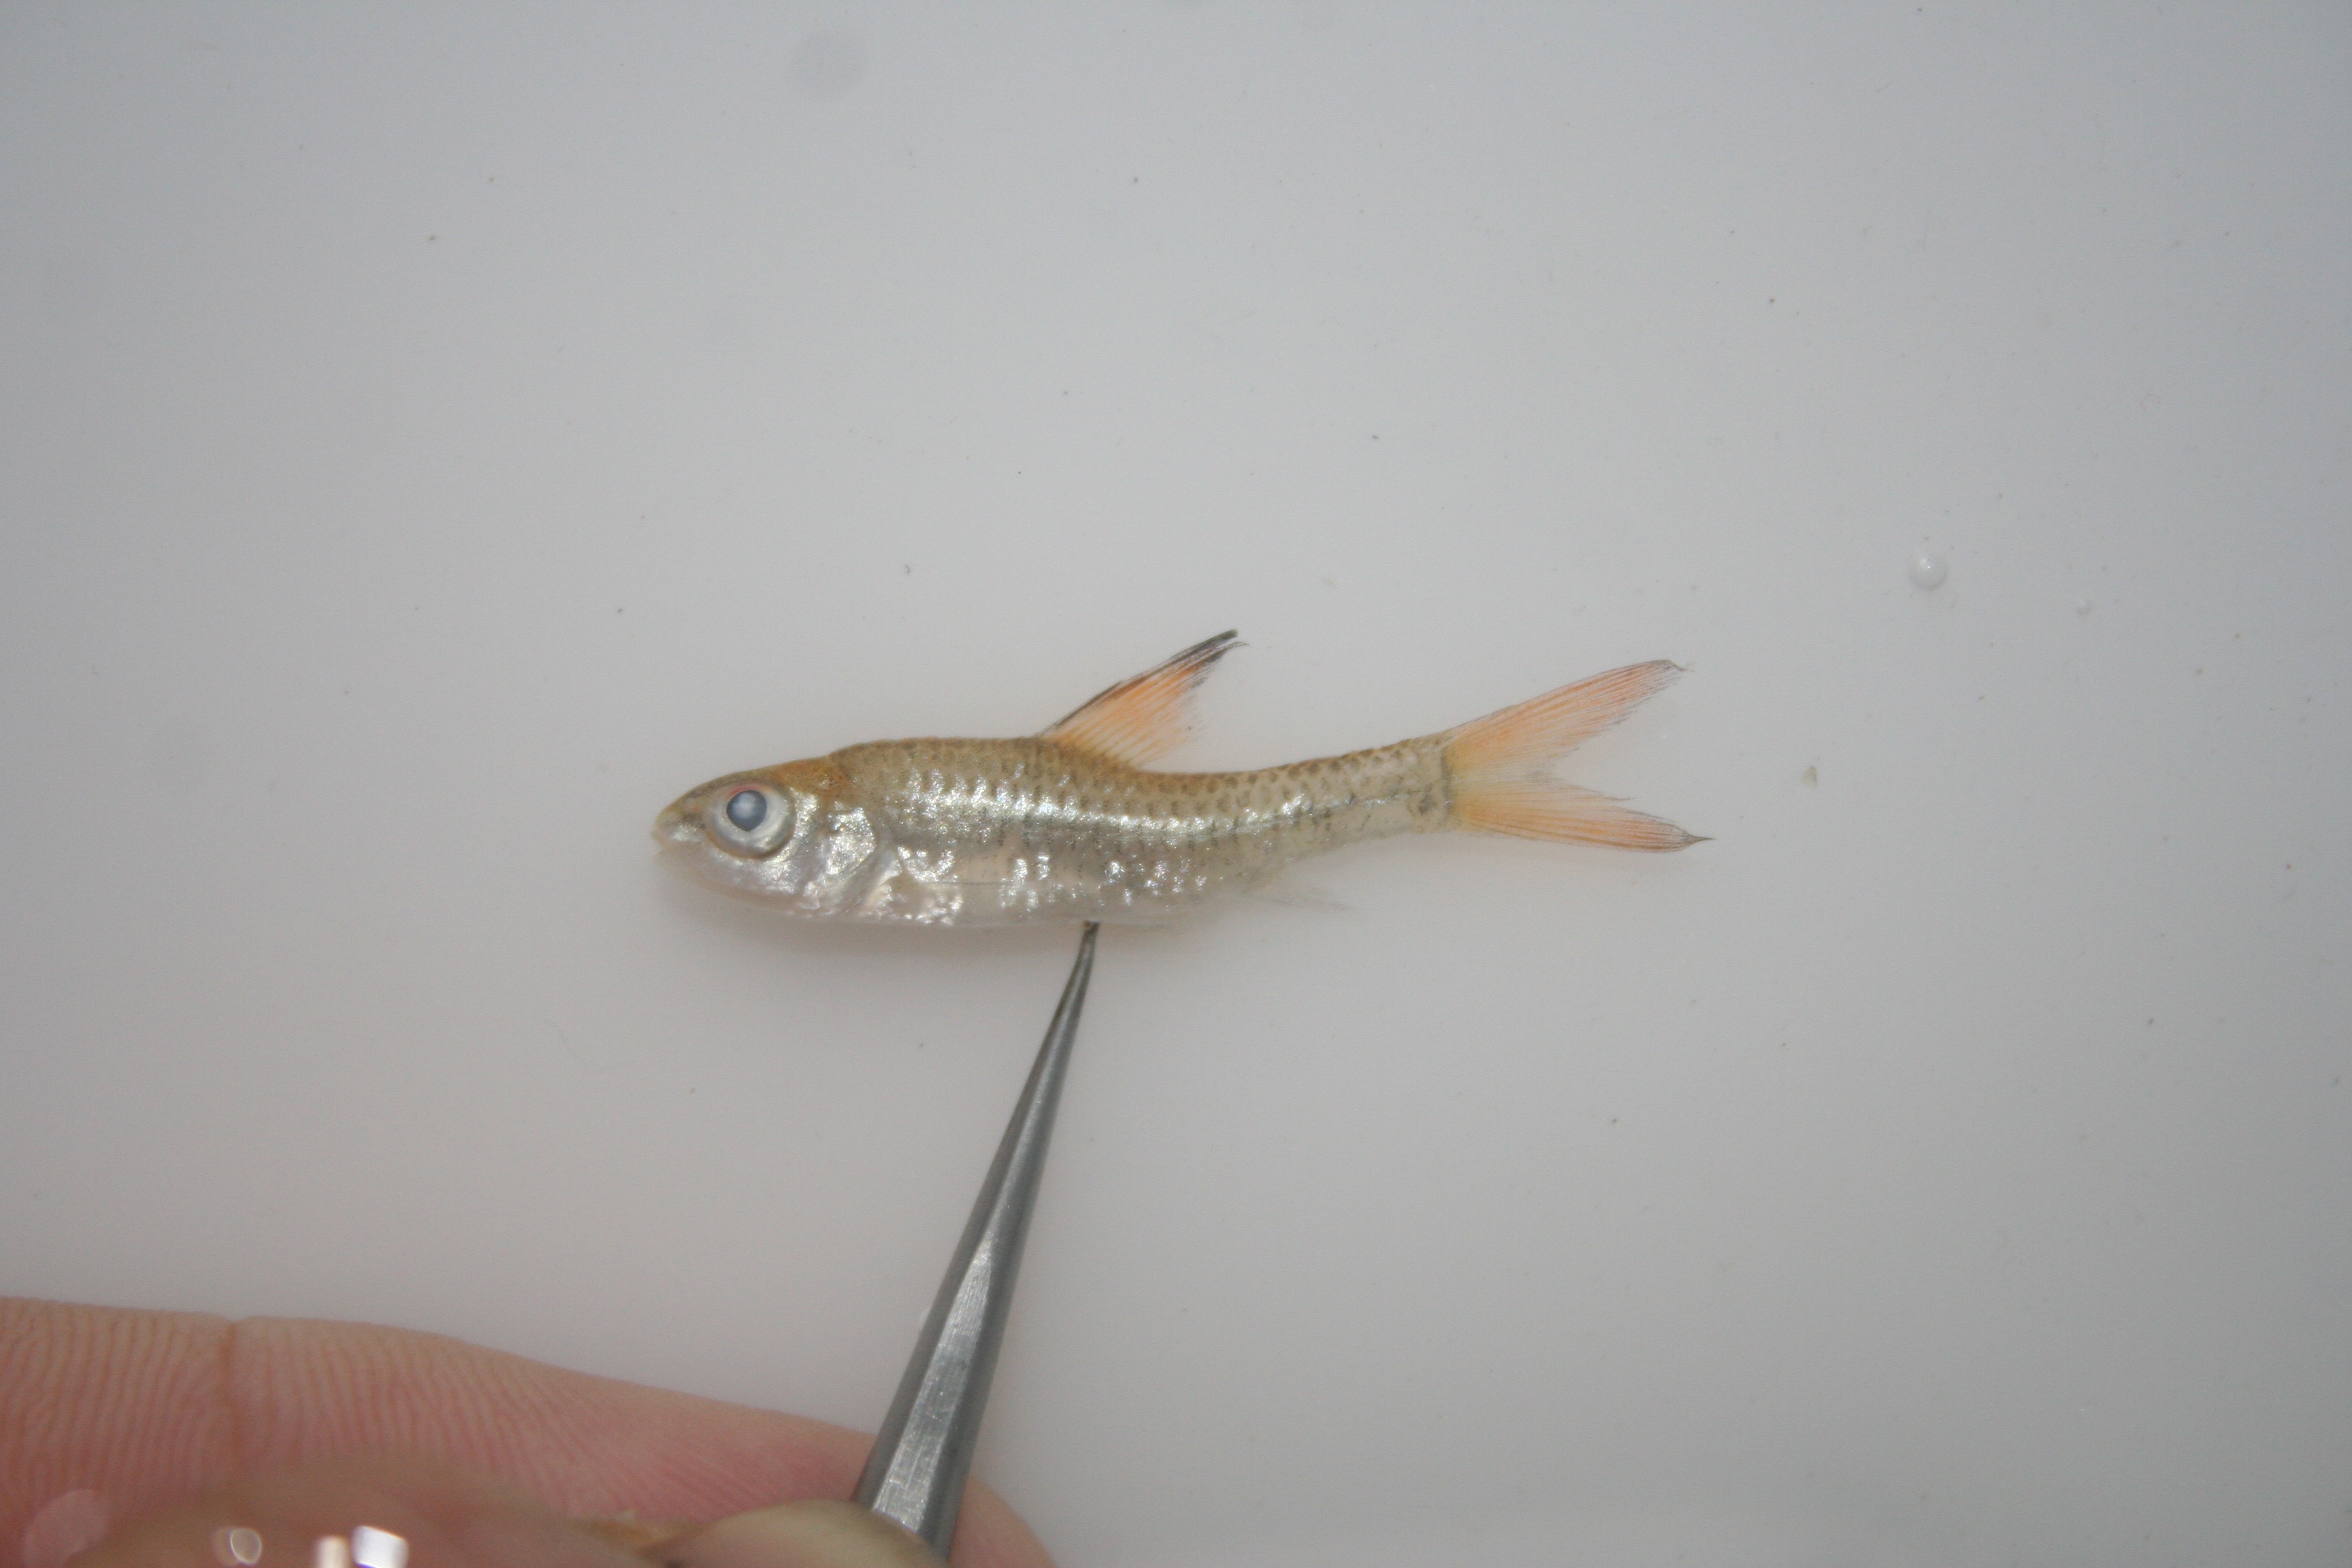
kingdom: Animalia
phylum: Chordata
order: Cypriniformes
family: Cyprinidae
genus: Barbus
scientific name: Barbus
